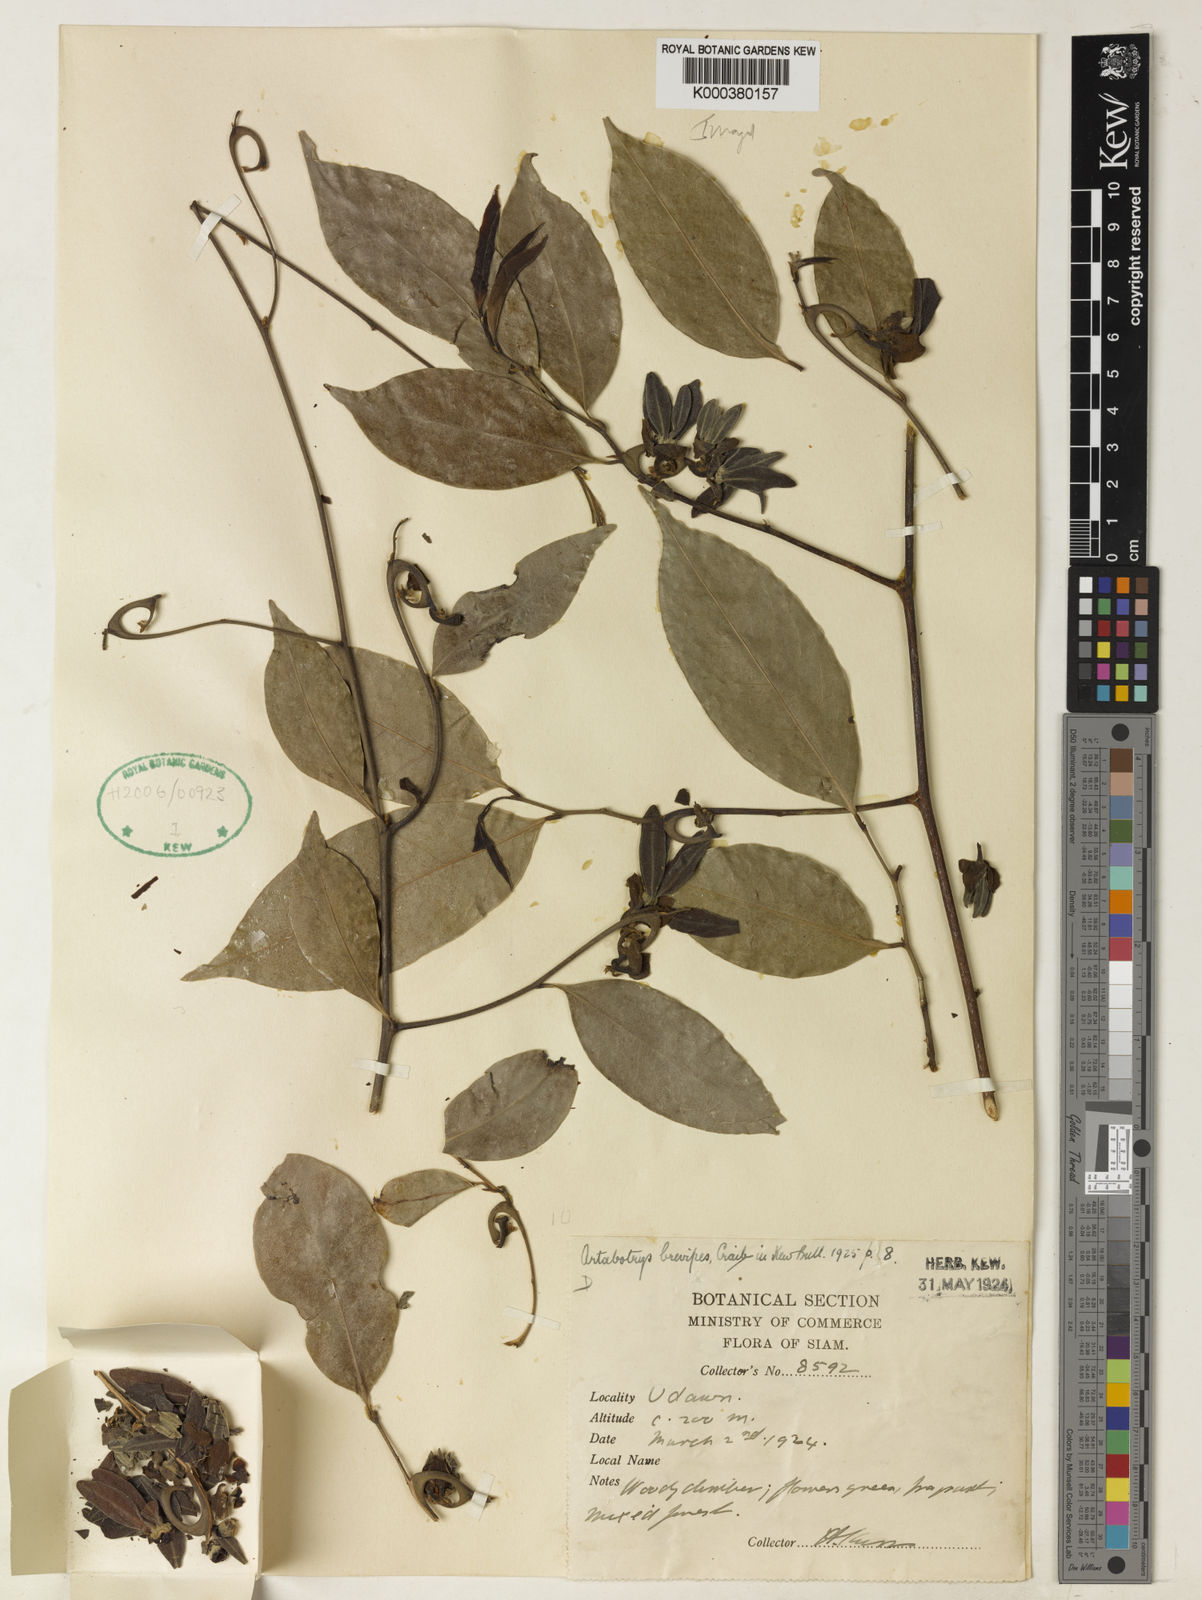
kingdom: Plantae
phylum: Tracheophyta
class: Magnoliopsida
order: Magnoliales
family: Annonaceae
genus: Artabotrys
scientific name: Artabotrys brevipes
